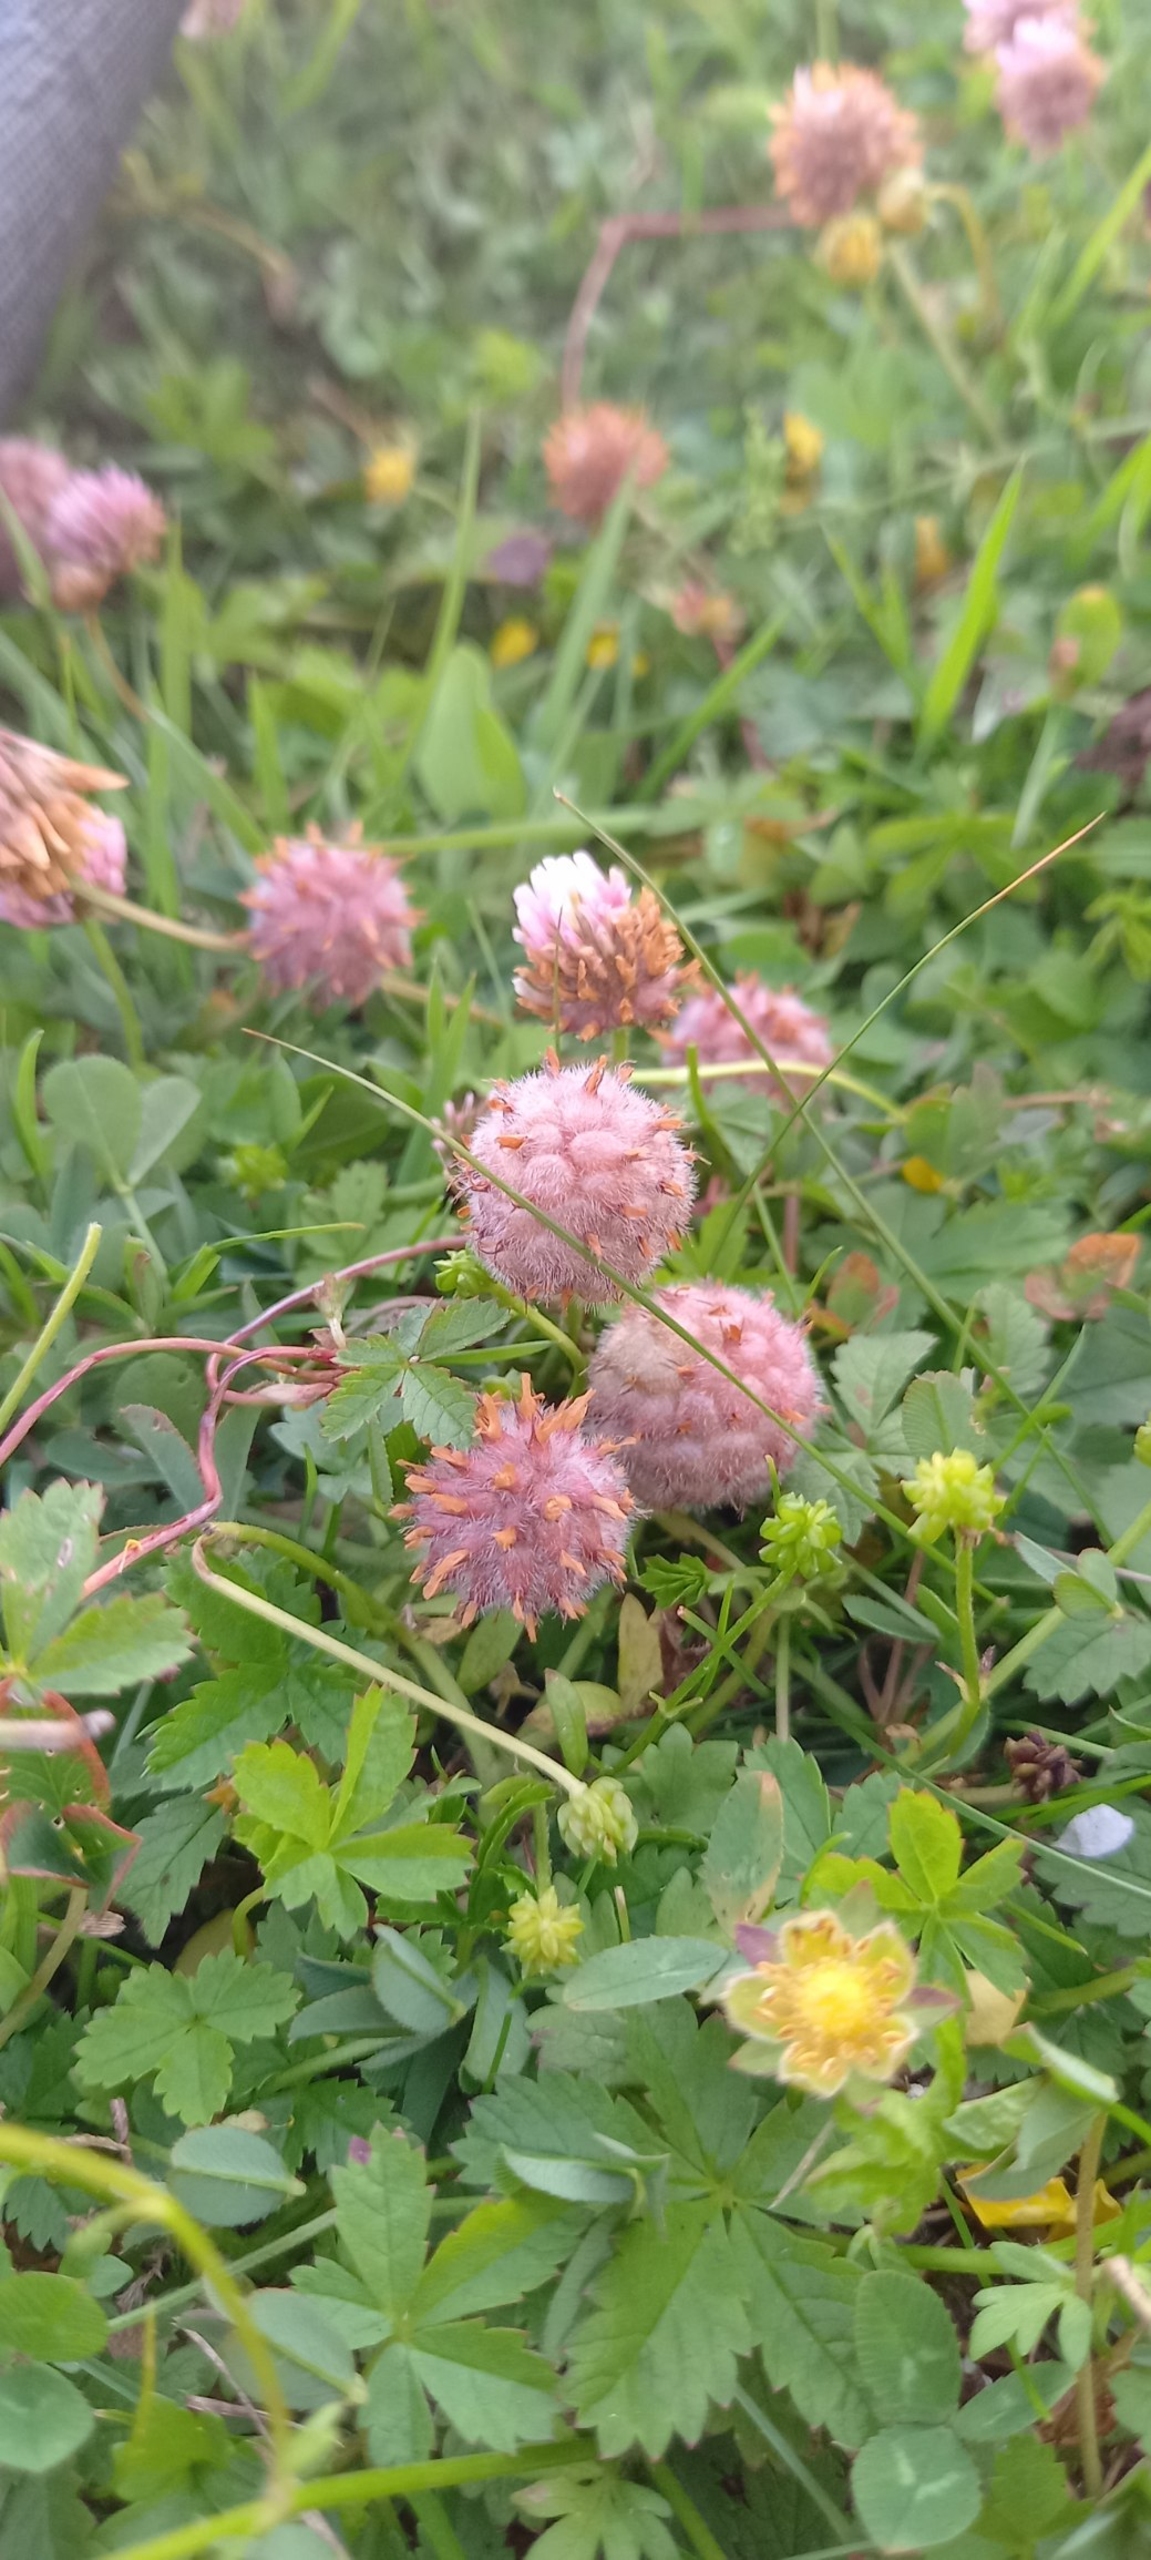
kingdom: Plantae
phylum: Tracheophyta
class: Magnoliopsida
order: Fabales
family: Fabaceae
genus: Trifolium
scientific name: Trifolium fragiferum
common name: Jordbær-kløver
